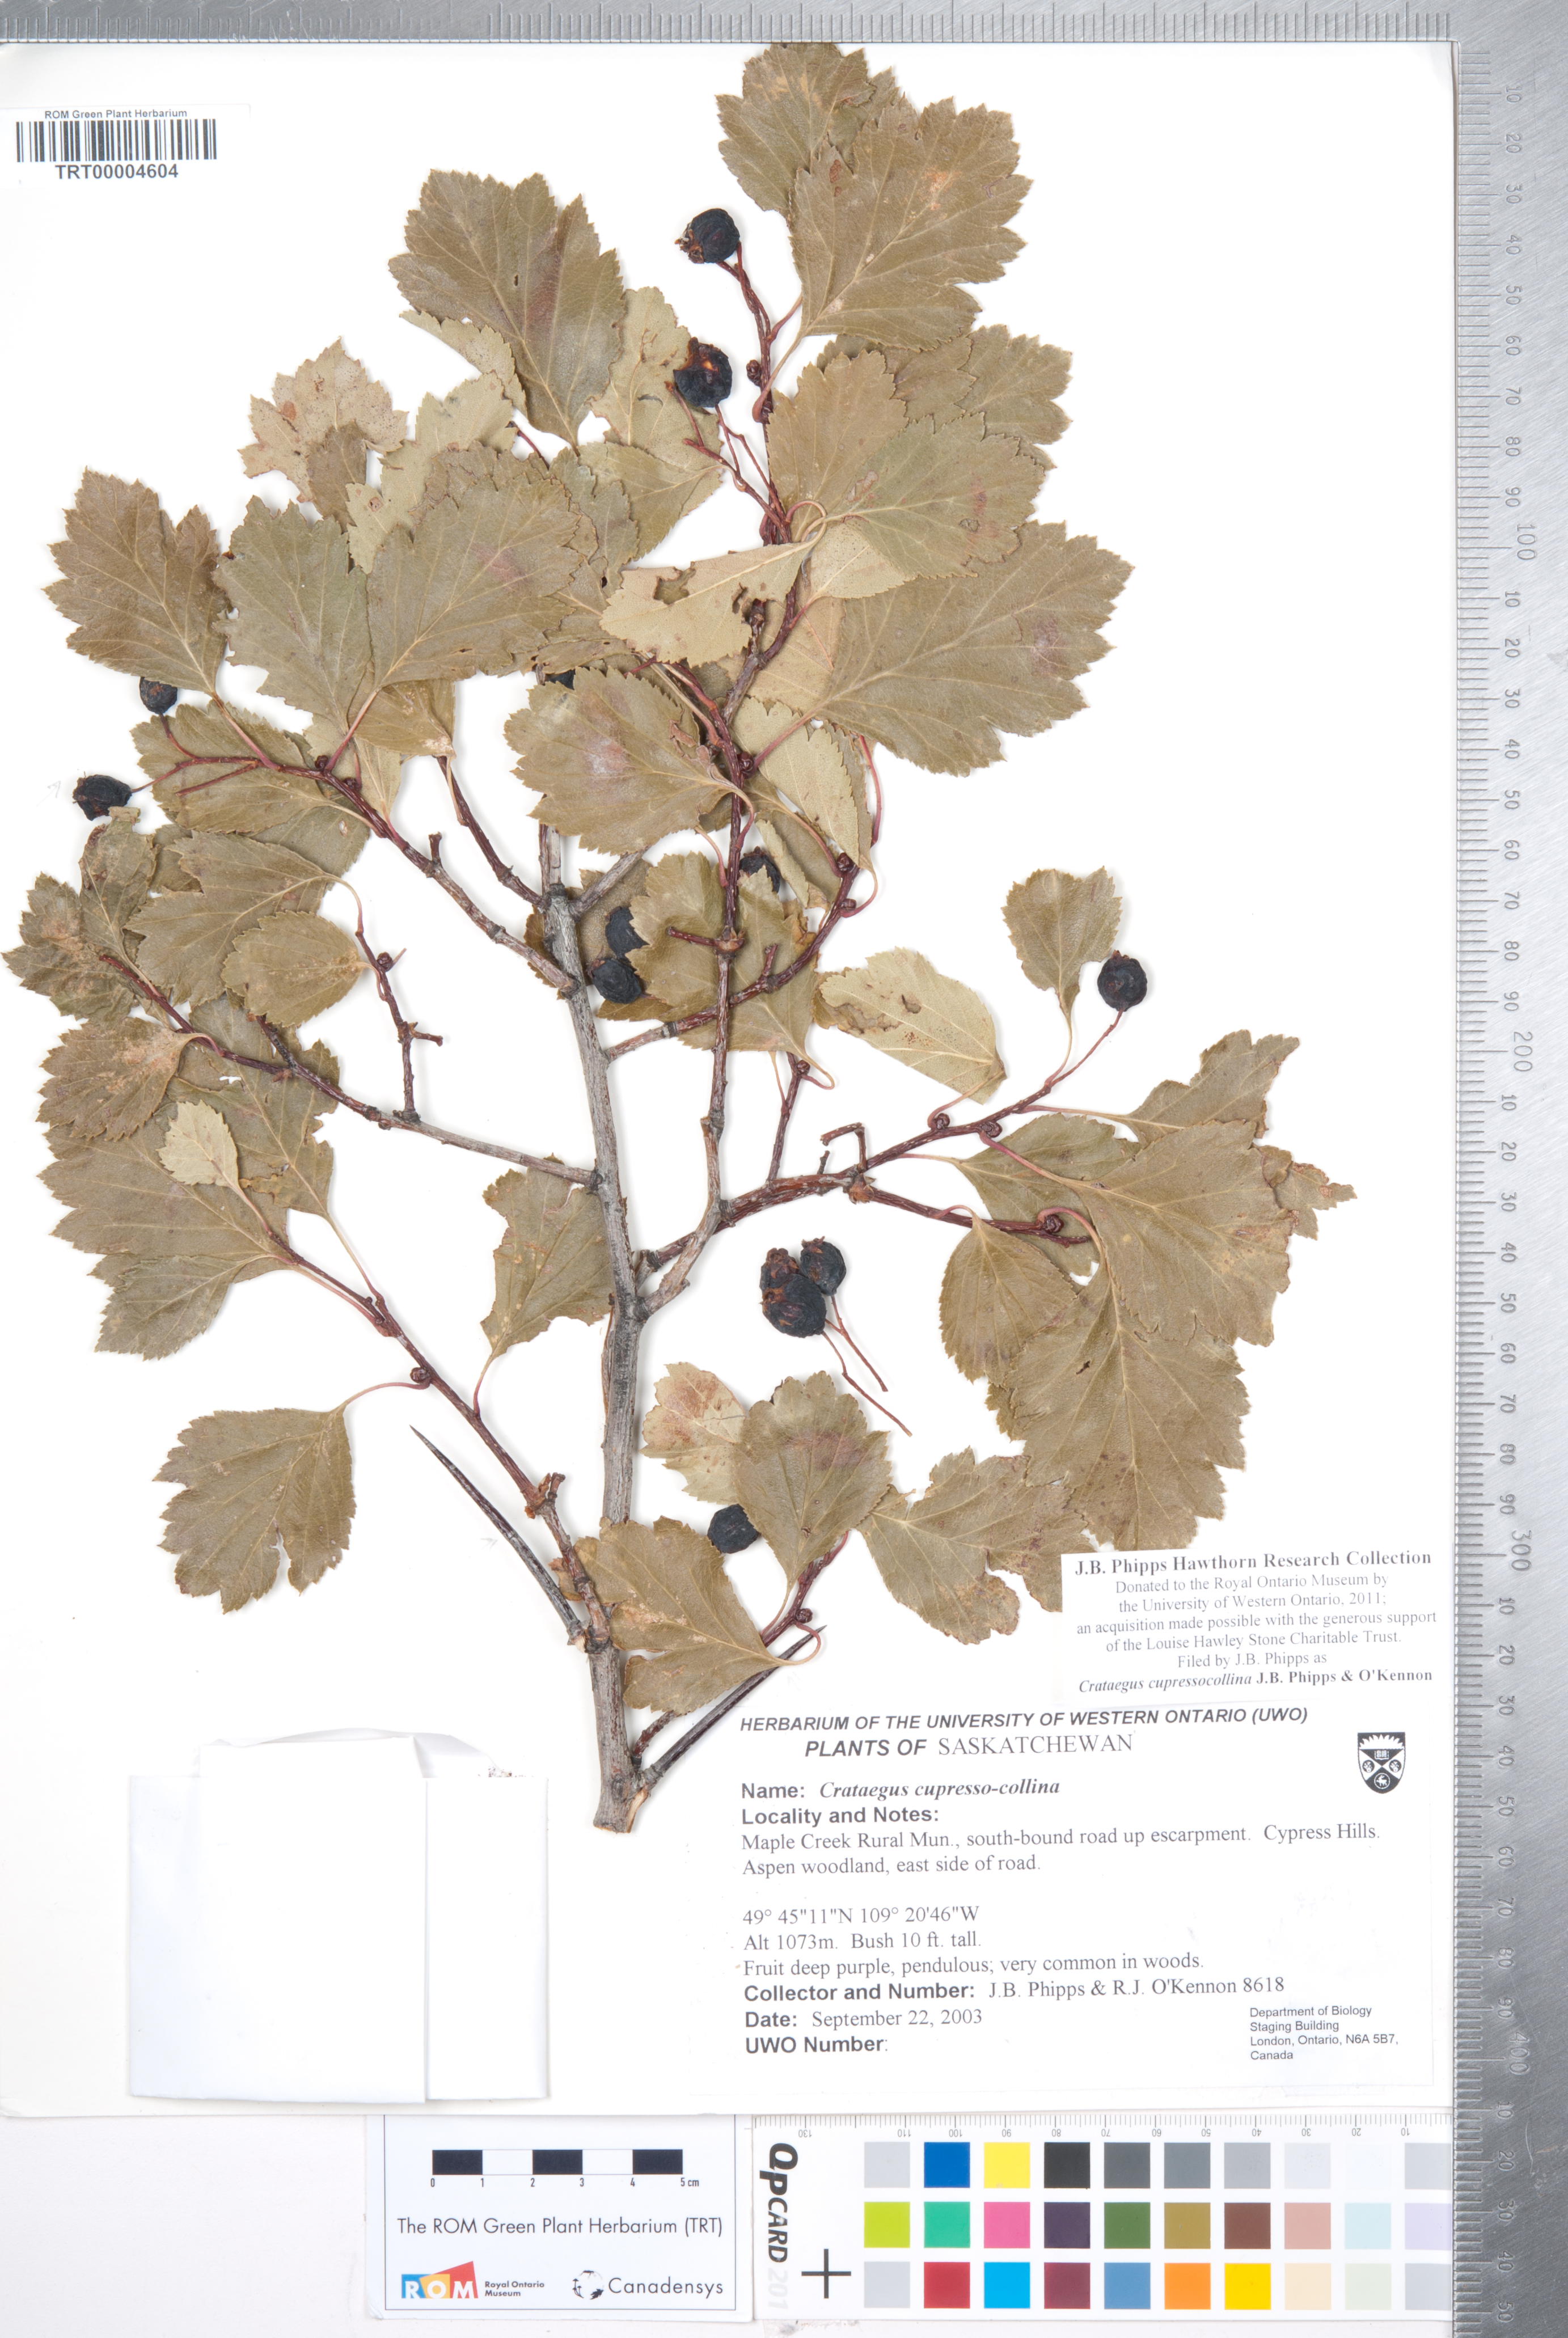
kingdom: Plantae
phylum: Tracheophyta
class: Magnoliopsida
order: Rosales
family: Rosaceae
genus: Crataegus
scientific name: Crataegus cupressocollina
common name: Cypress hills hawthorn
